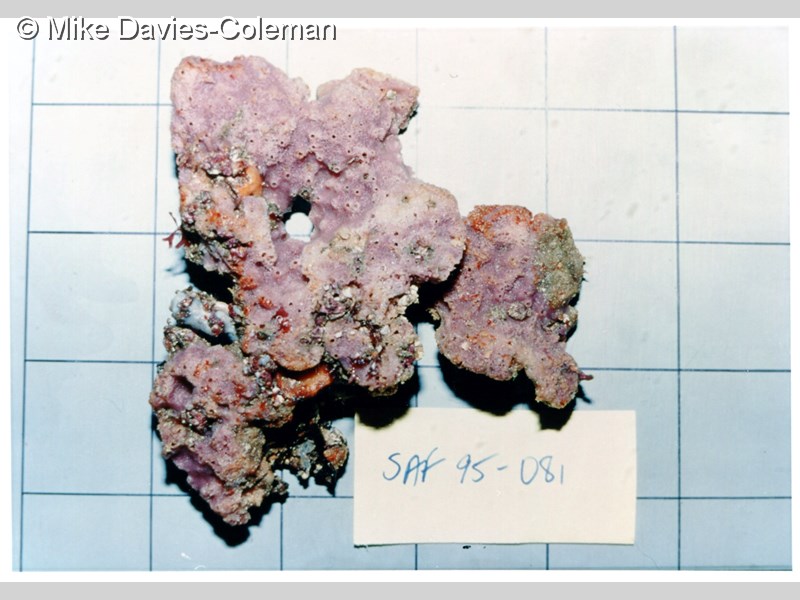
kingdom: Animalia
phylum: Porifera
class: Demospongiae
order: Haplosclerida
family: Chalinidae
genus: Haliclona
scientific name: Haliclona
